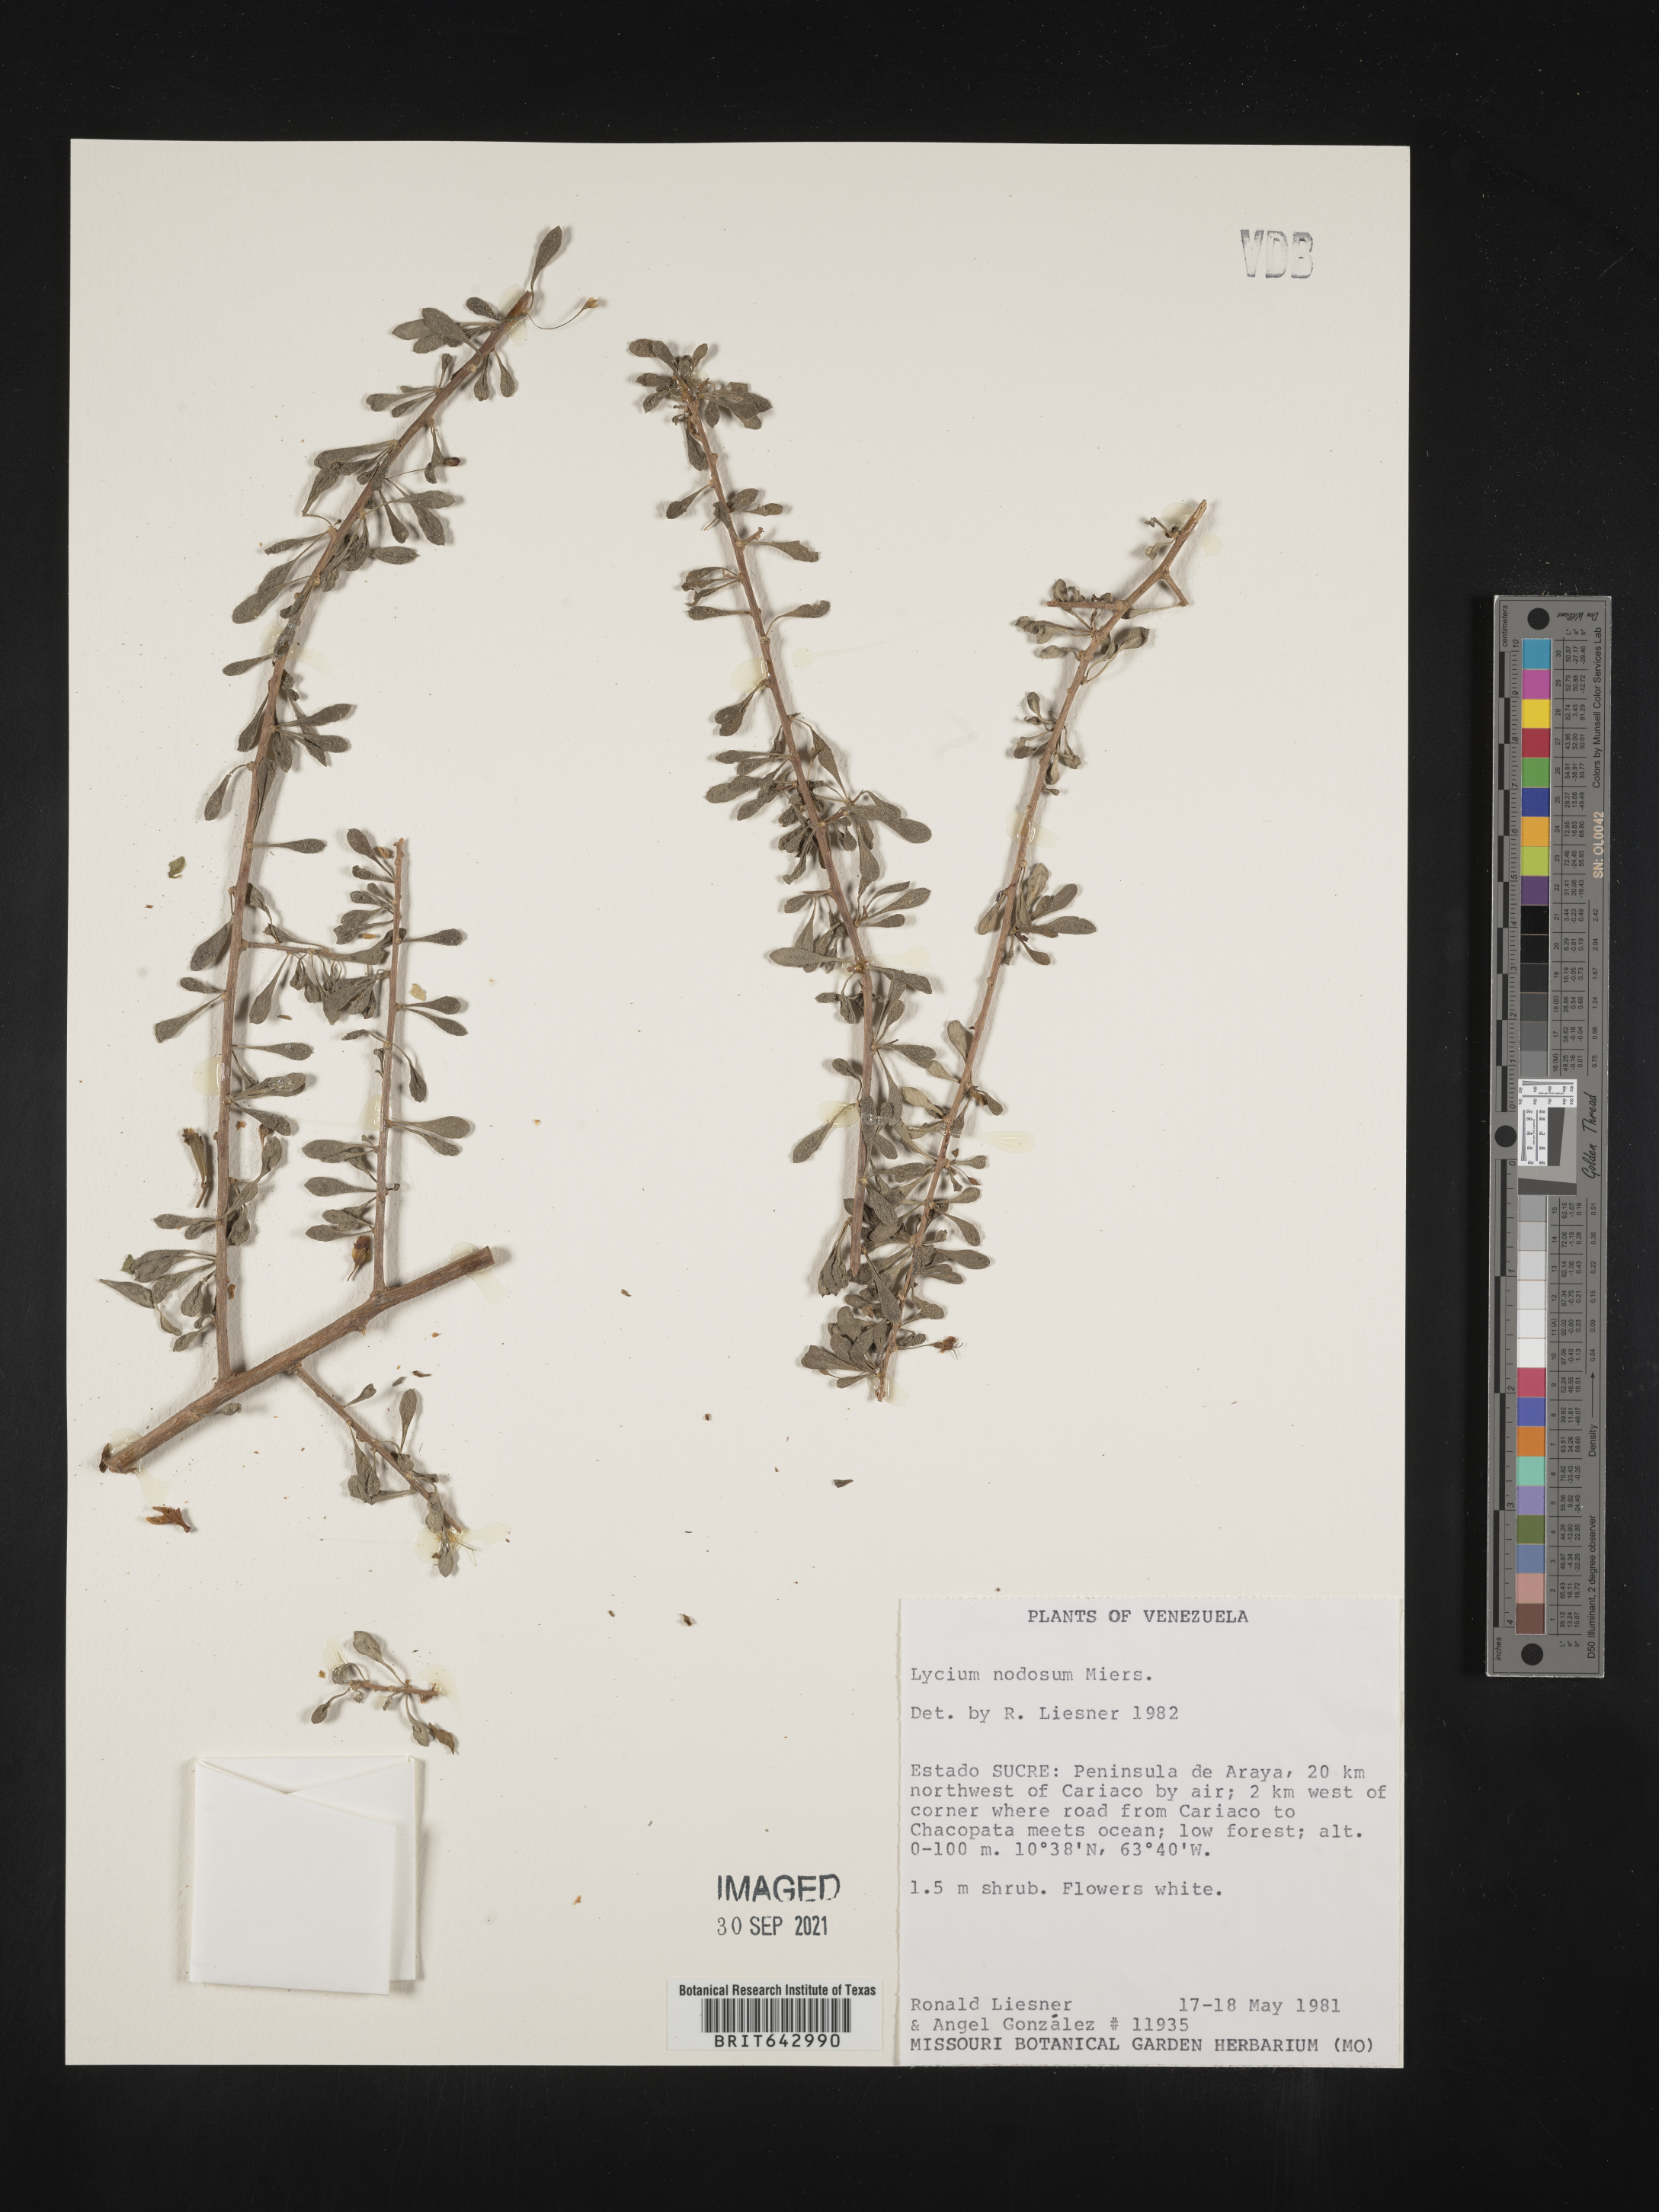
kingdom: Plantae
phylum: Tracheophyta
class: Magnoliopsida
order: Solanales
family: Solanaceae
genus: Lycium
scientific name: Lycium
